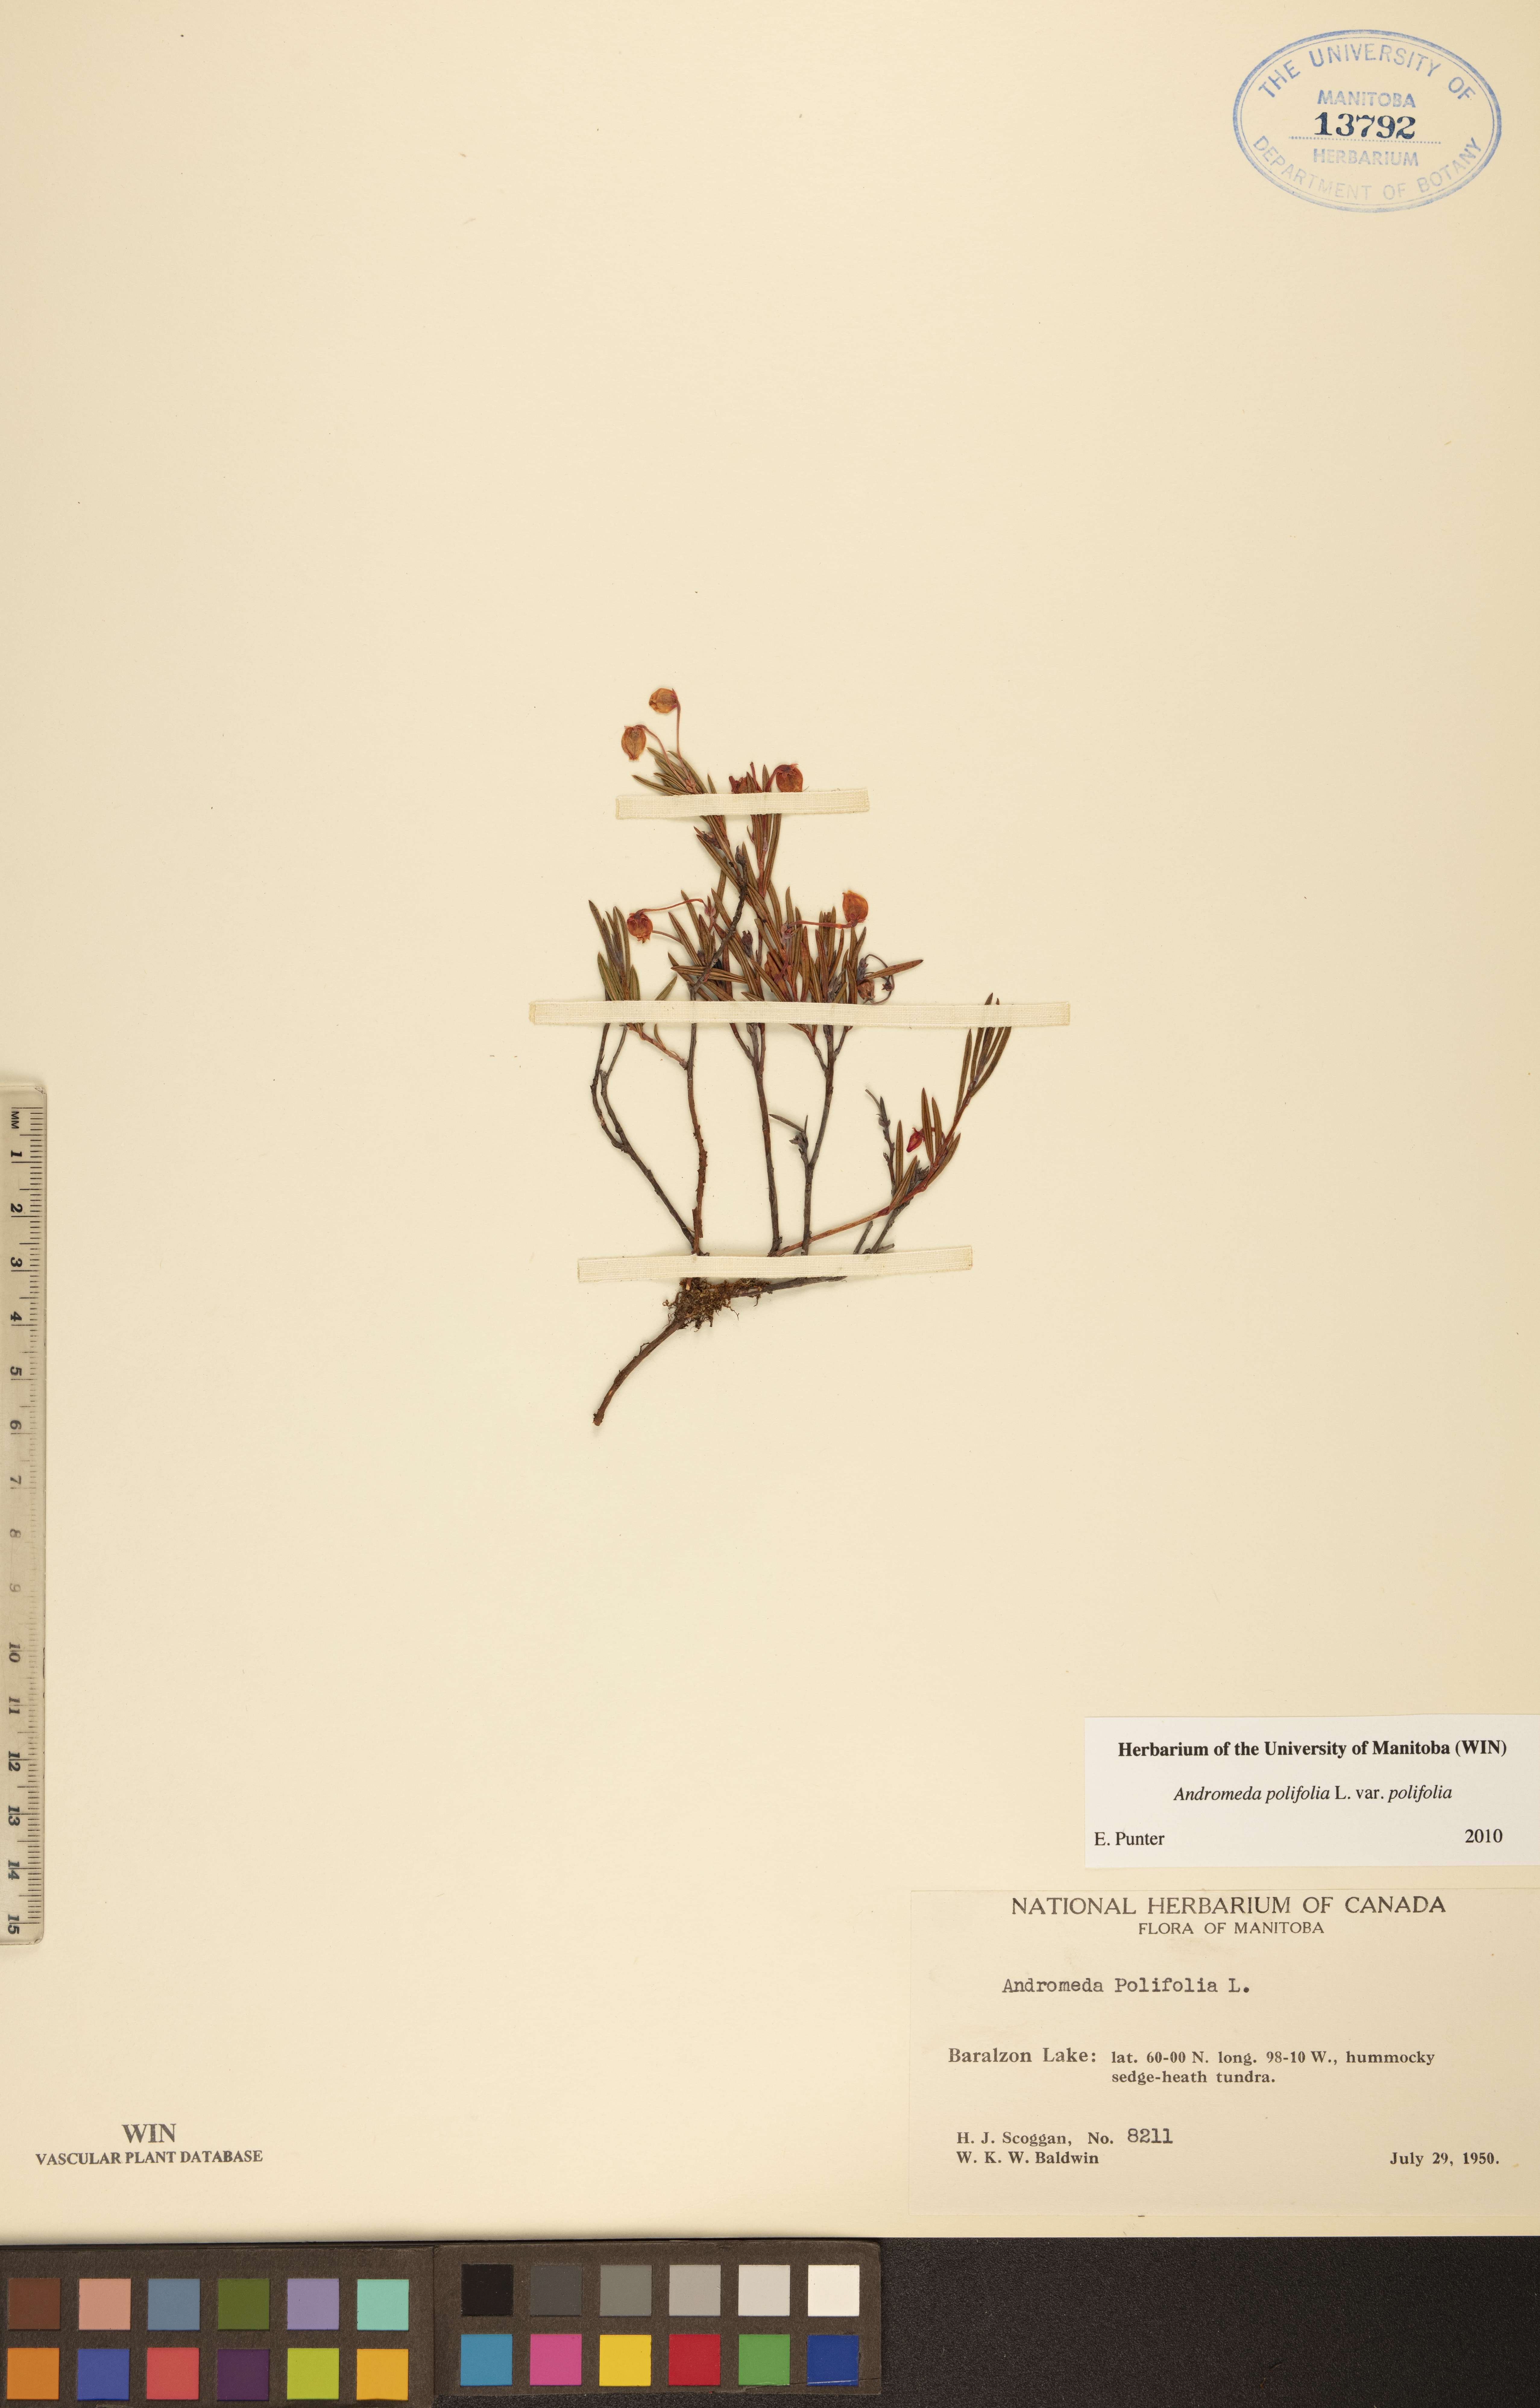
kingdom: Plantae
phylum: Tracheophyta
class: Magnoliopsida
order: Ericales
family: Ericaceae
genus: Andromeda
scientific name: Andromeda polifolia
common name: Bog-rosemary
